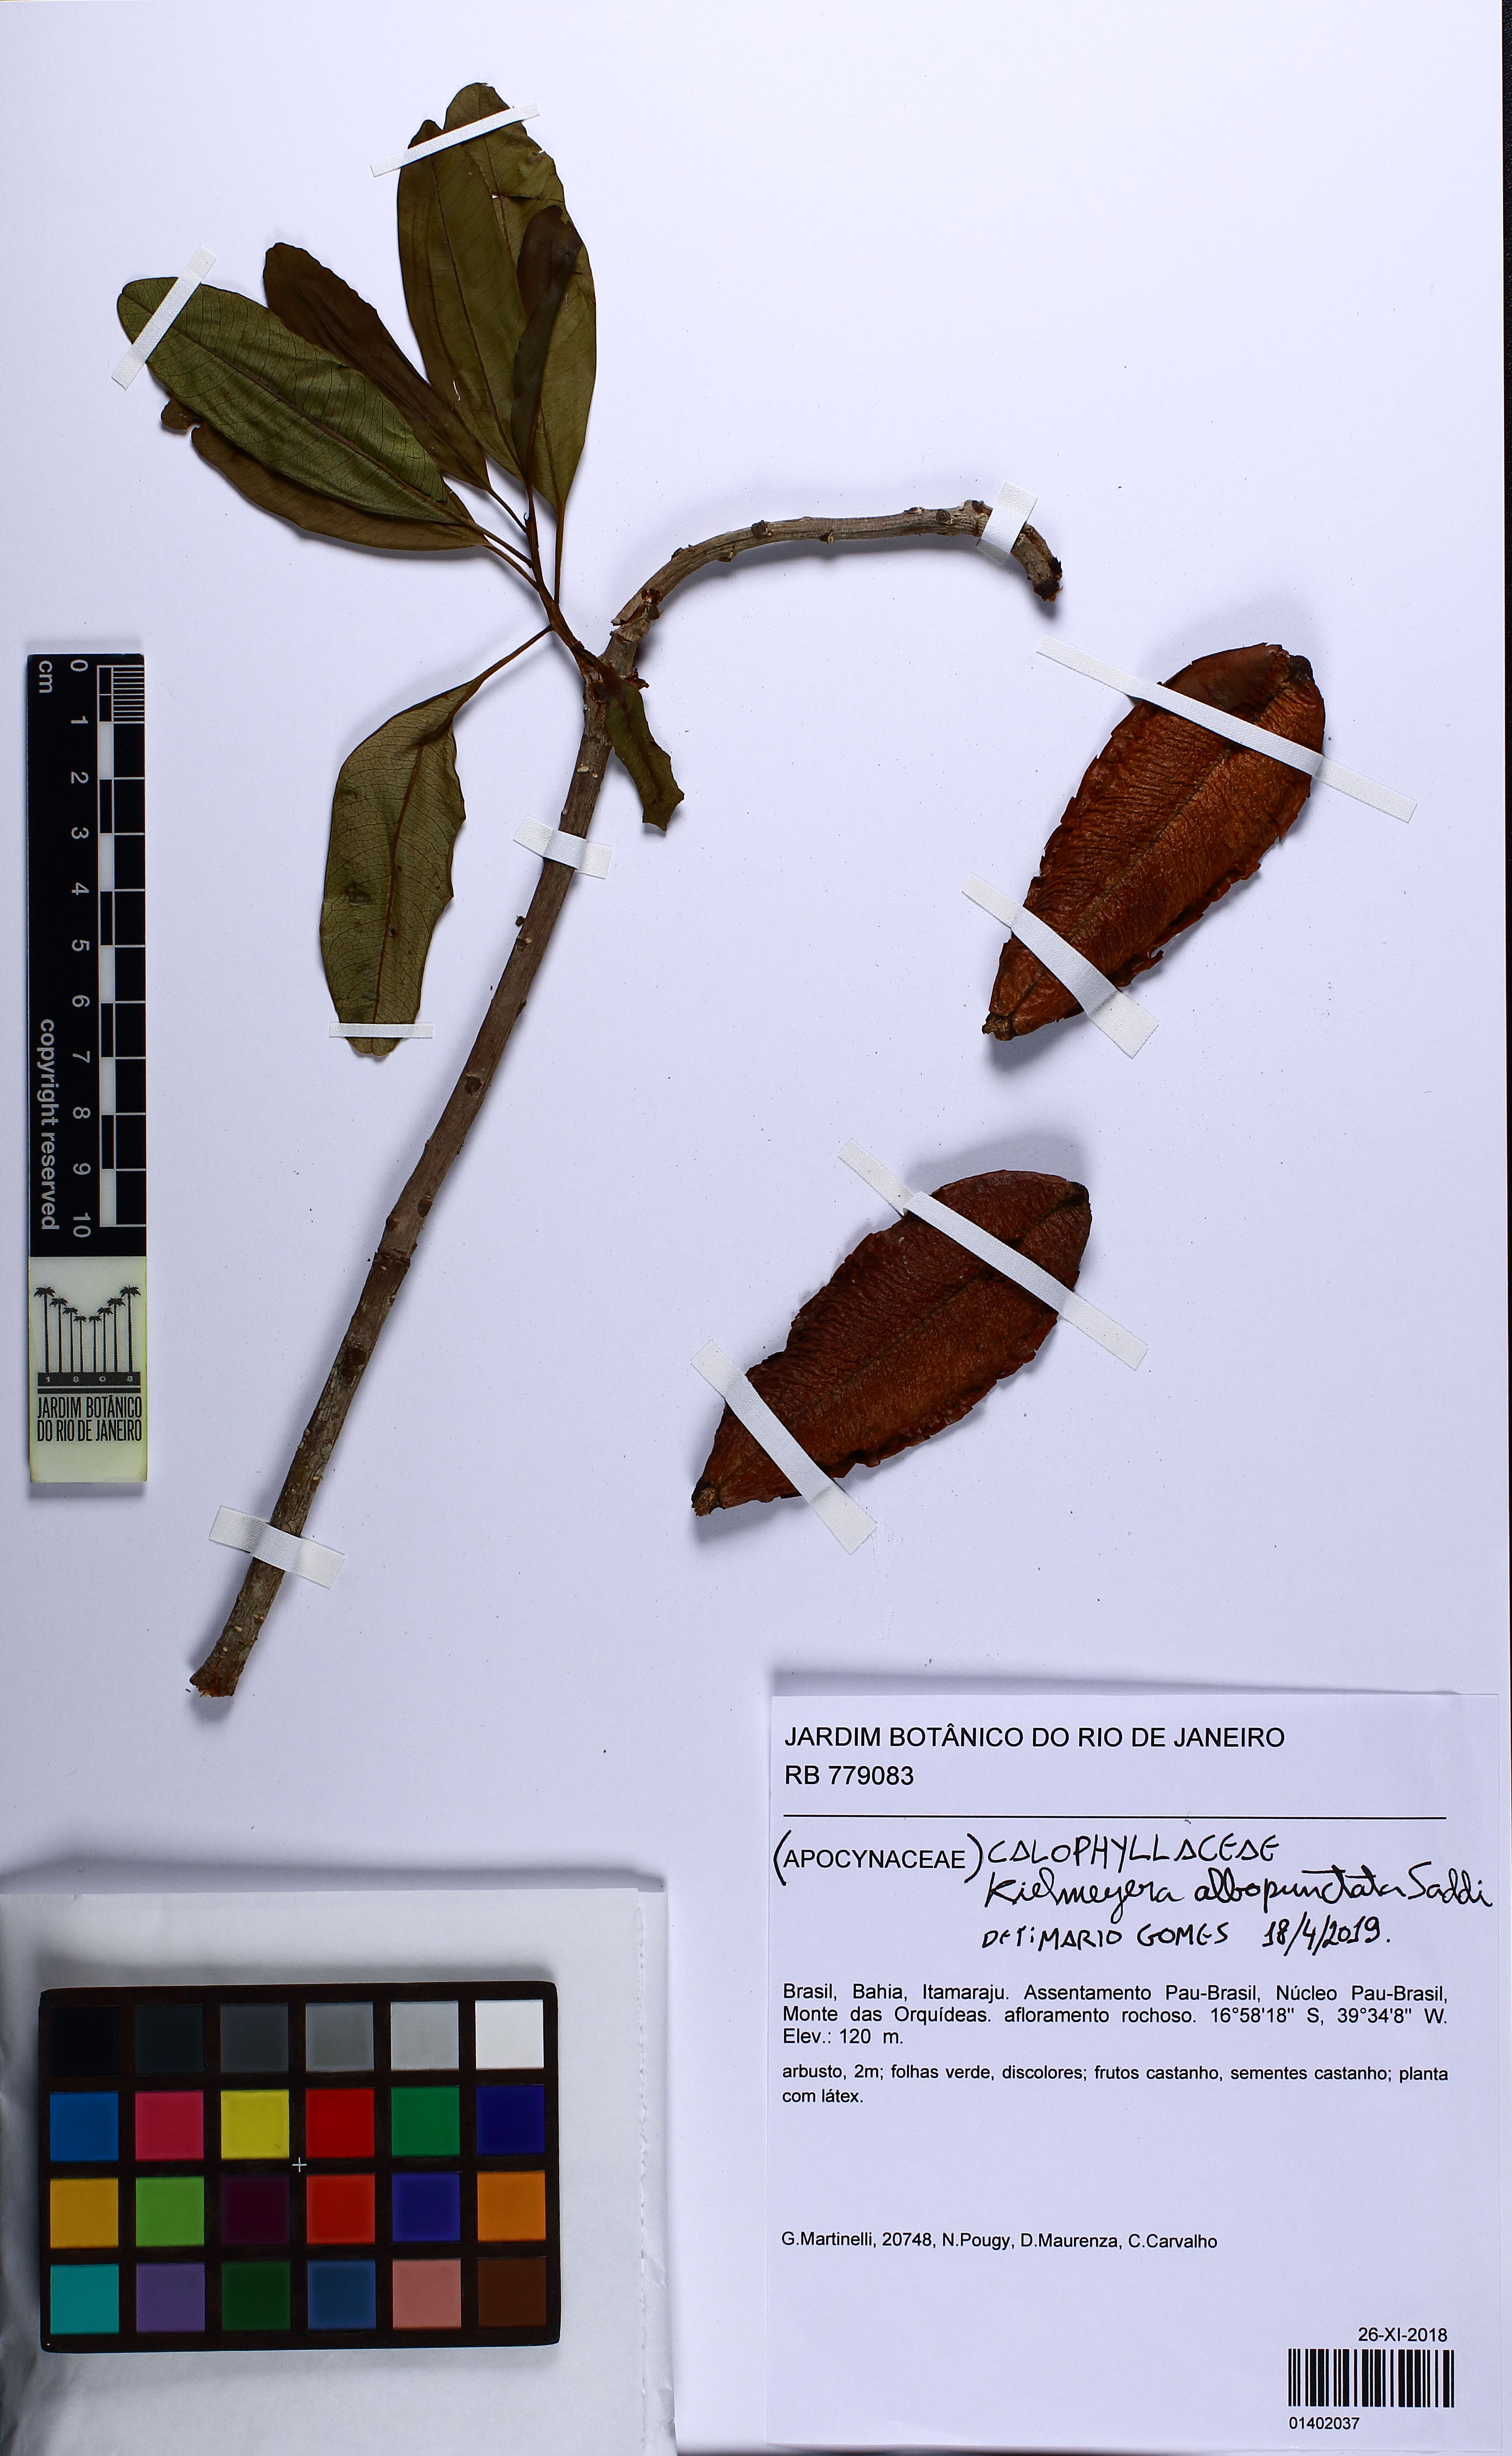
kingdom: Plantae
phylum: Tracheophyta
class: Magnoliopsida
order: Malpighiales
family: Calophyllaceae
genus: Kielmeyera
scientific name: Kielmeyera albopunctata
